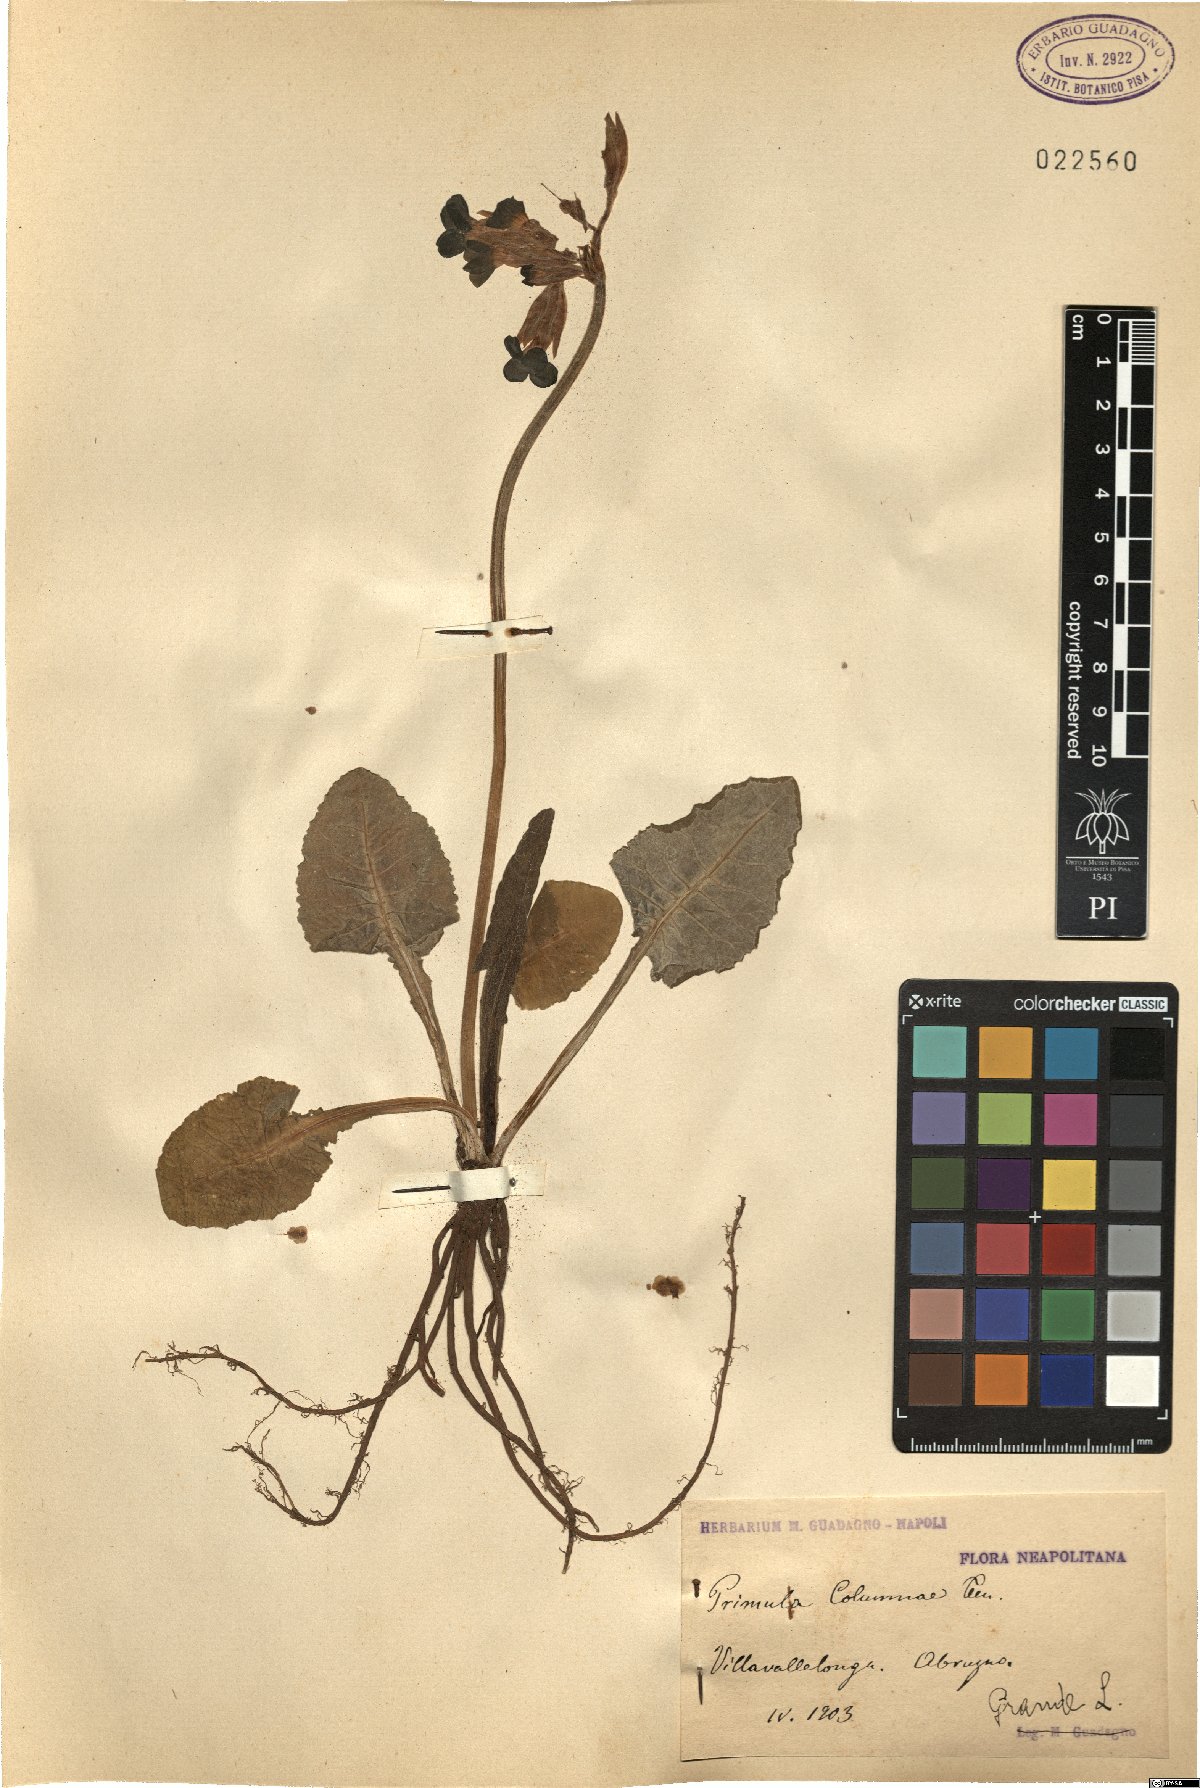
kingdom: Plantae
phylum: Tracheophyta
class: Magnoliopsida
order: Ericales
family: Primulaceae
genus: Primula
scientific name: Primula veris
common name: Cowslip
